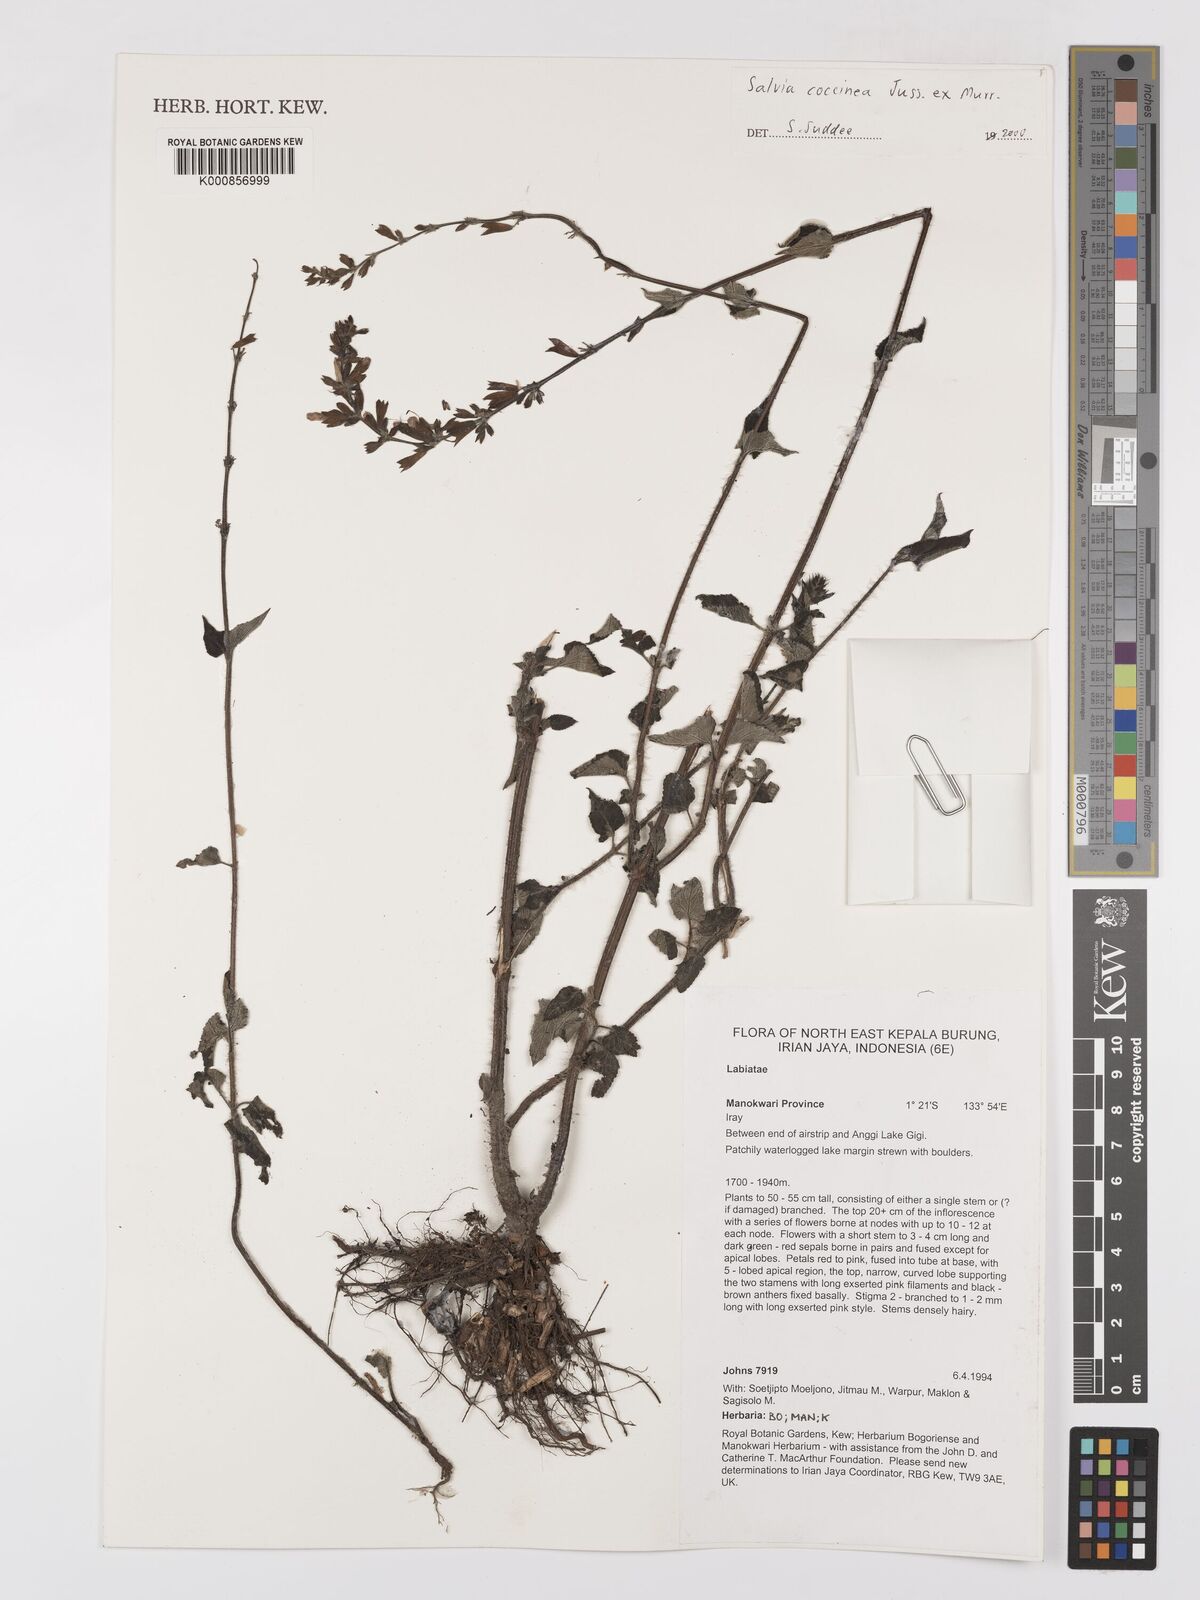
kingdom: Plantae
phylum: Tracheophyta
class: Magnoliopsida
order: Lamiales
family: Lamiaceae
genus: Salvia
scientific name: Salvia coccinea
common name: Blood sage
